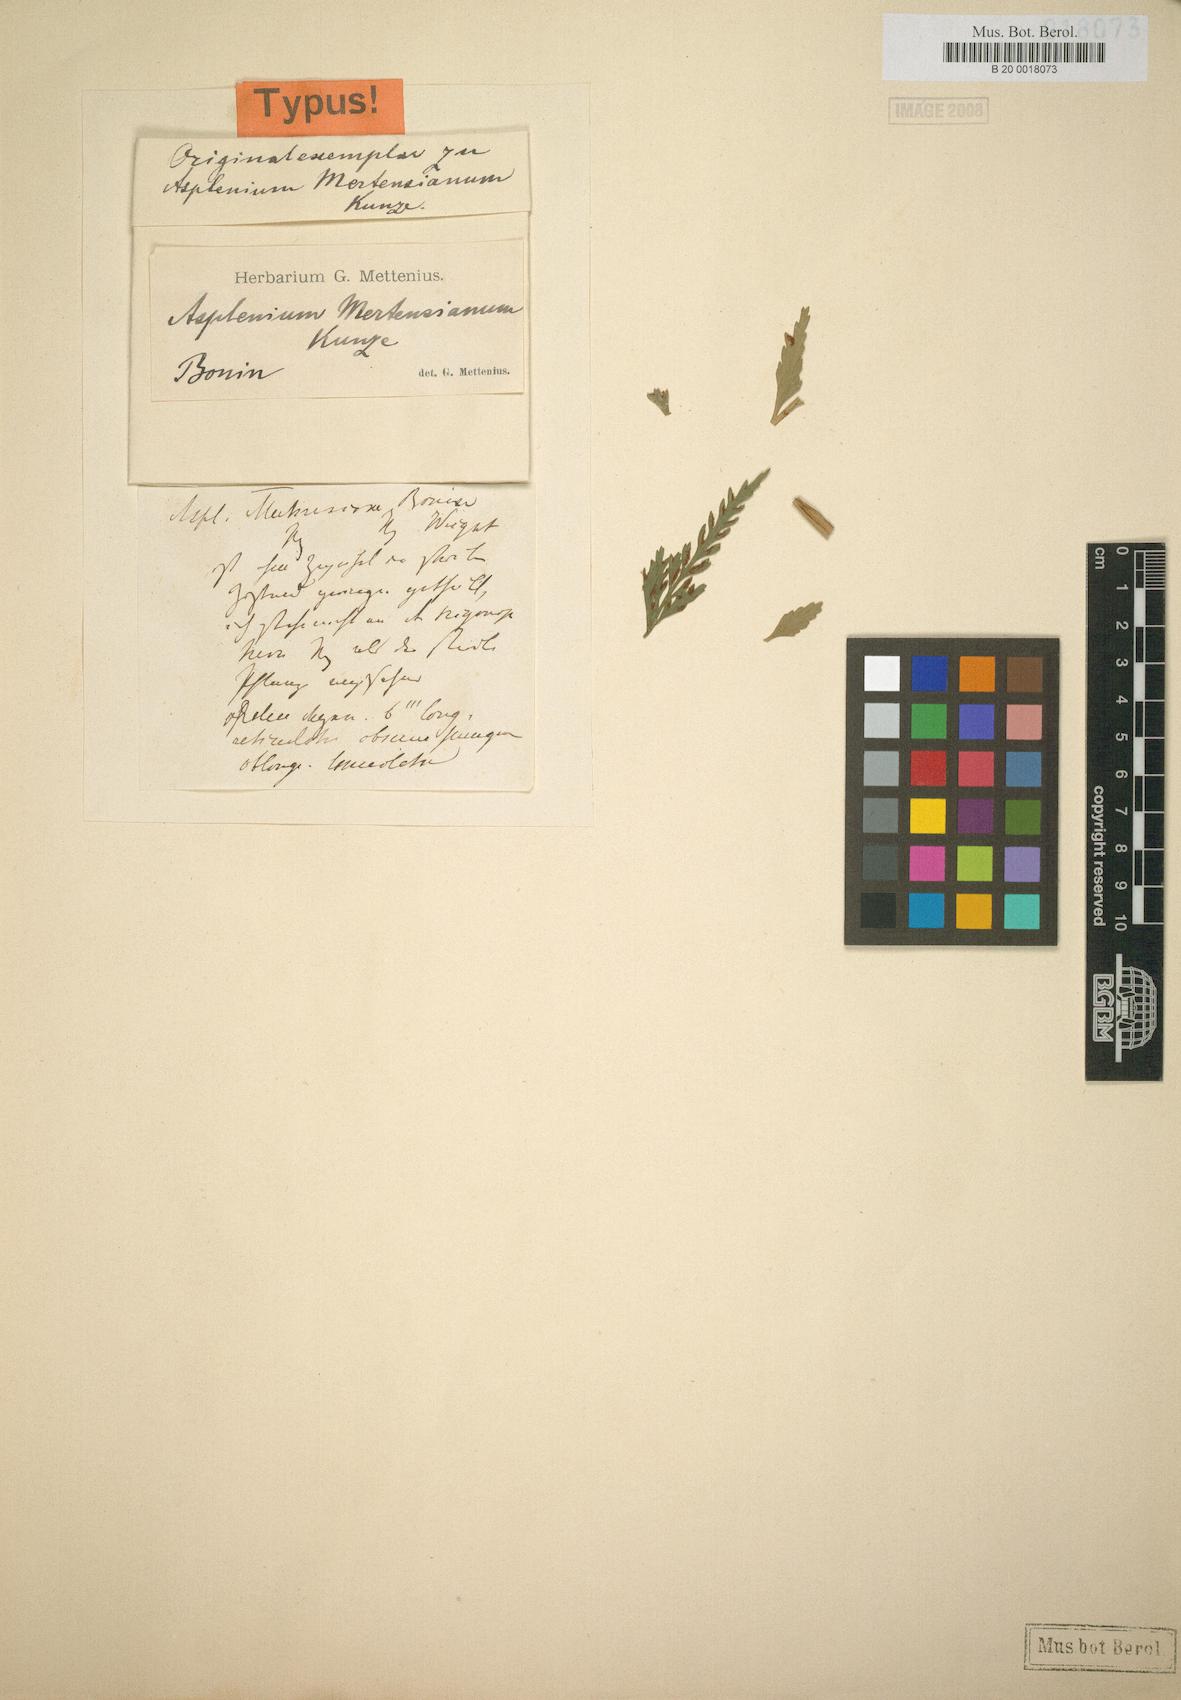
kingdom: Plantae
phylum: Tracheophyta
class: Polypodiopsida
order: Polypodiales
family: Aspleniaceae
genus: Asplenium
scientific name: Asplenium trigonopterum
